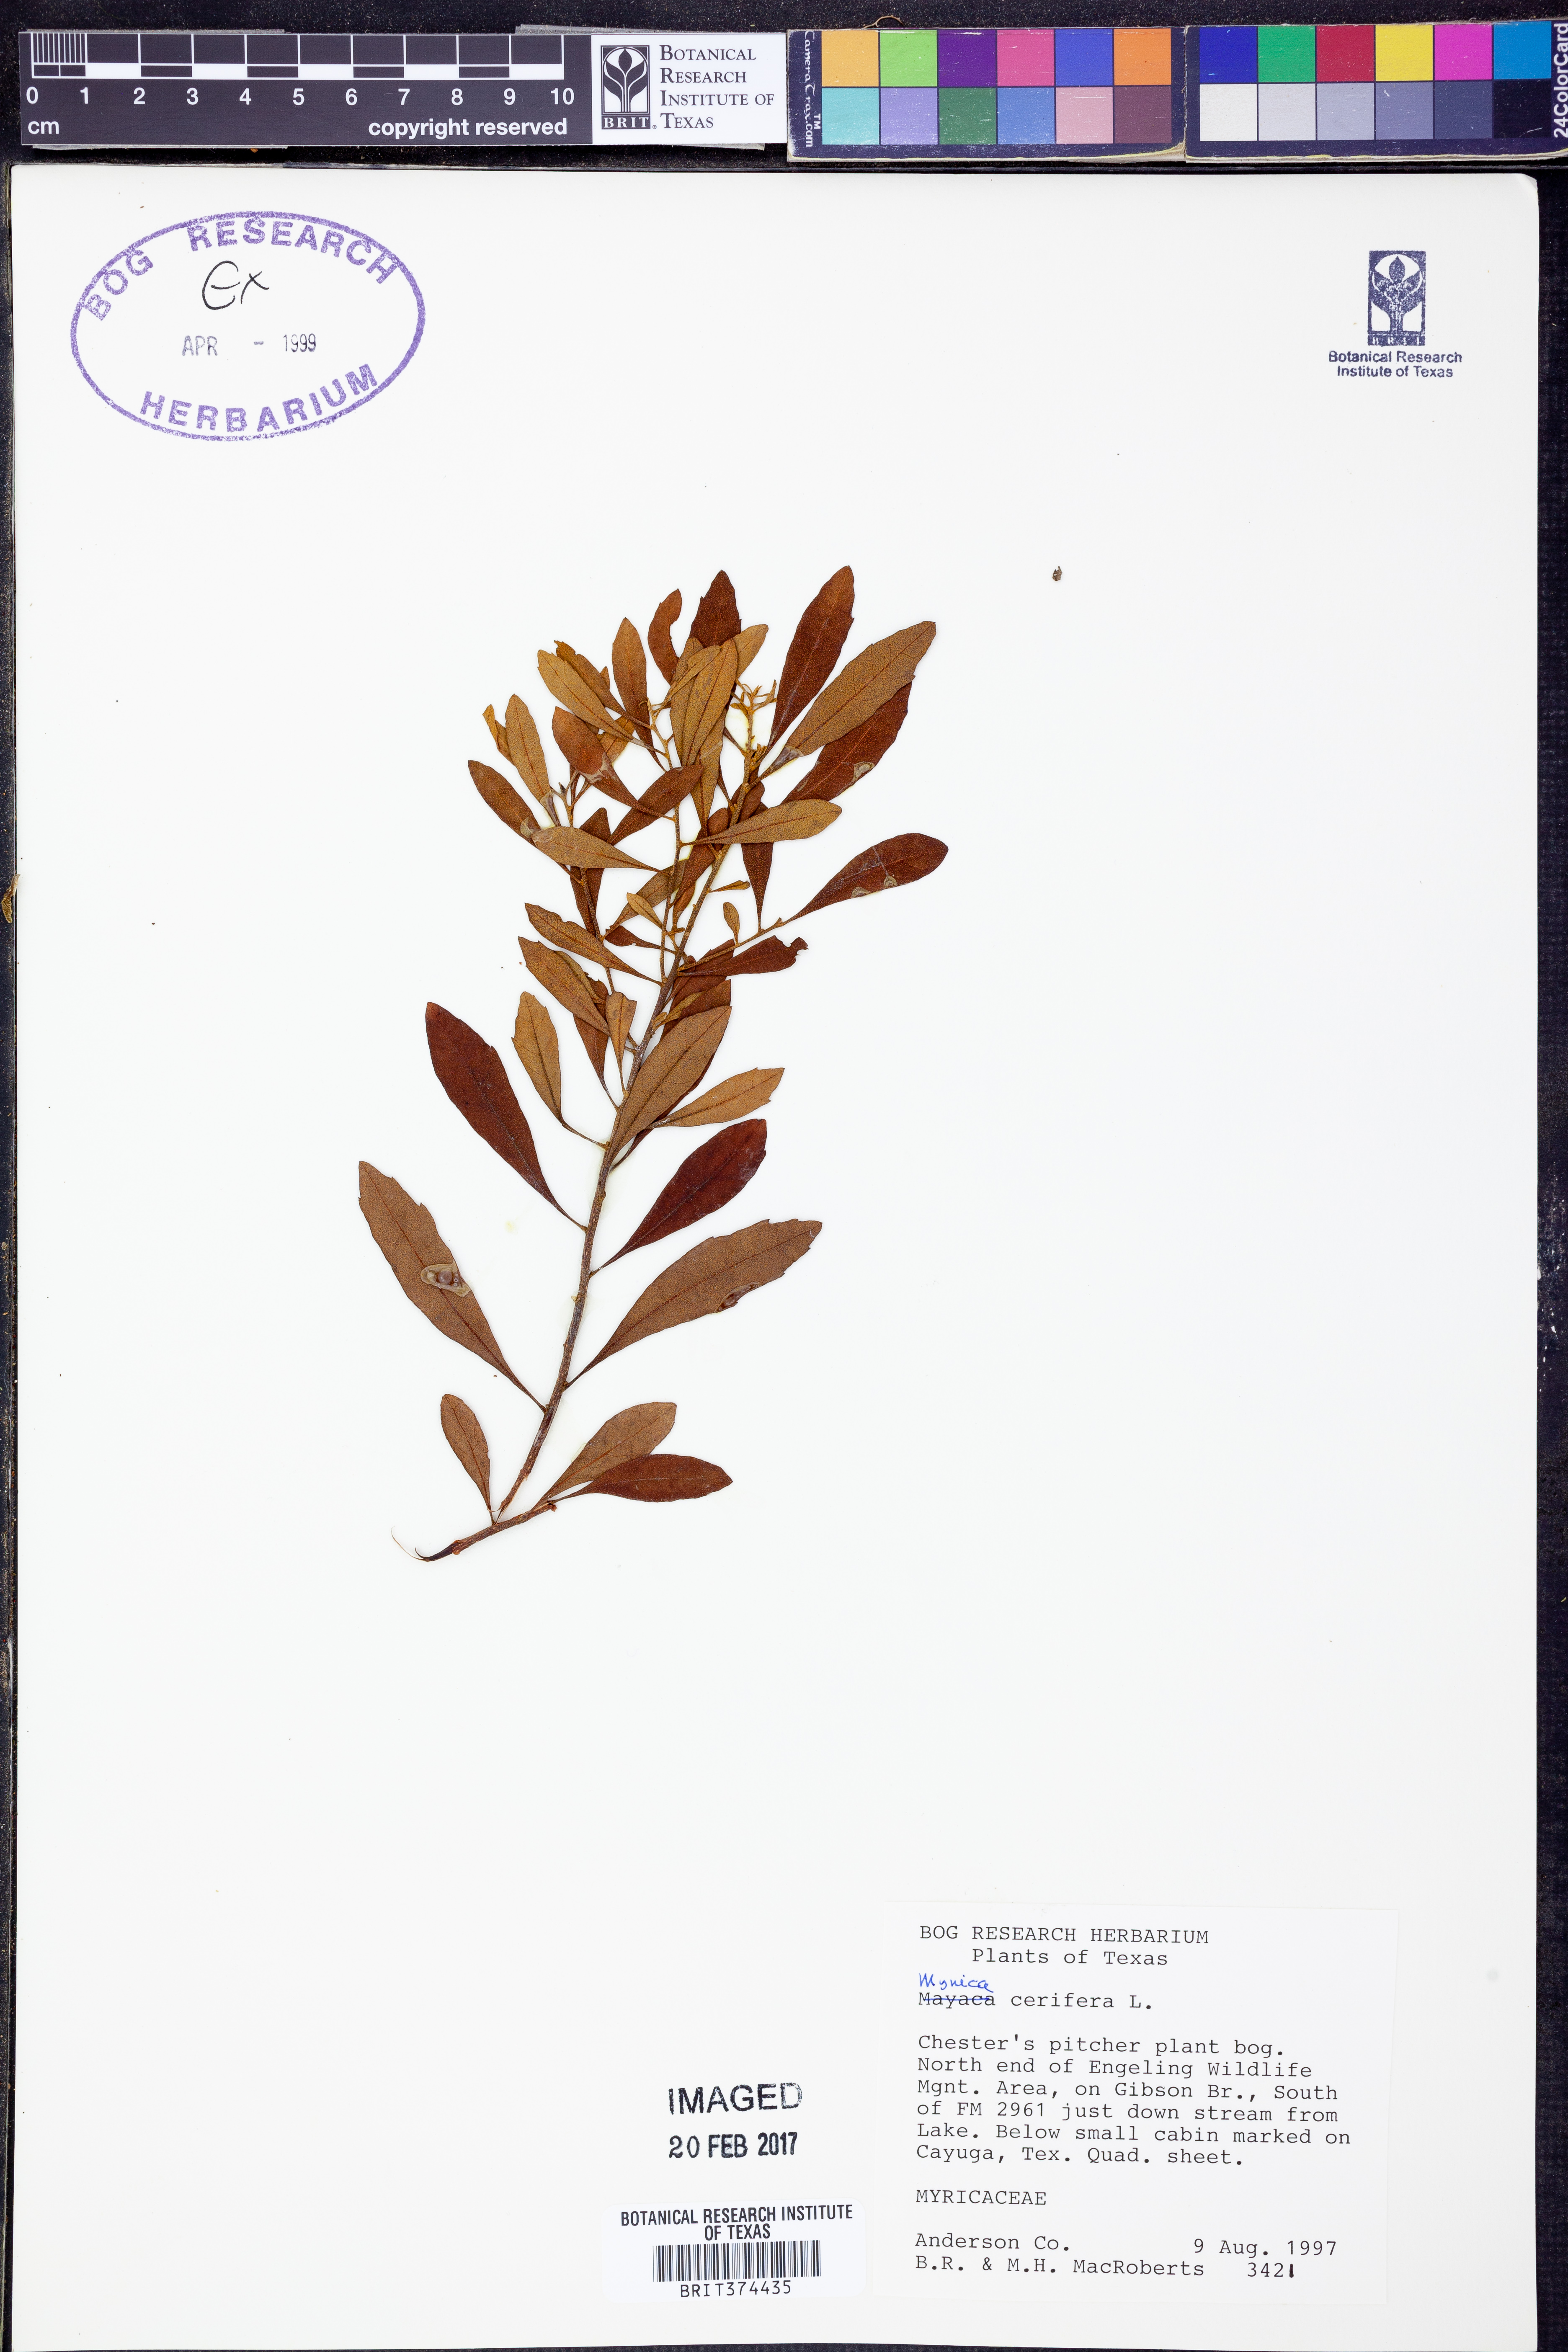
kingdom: Plantae
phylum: Tracheophyta
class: Magnoliopsida
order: Fagales
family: Myricaceae
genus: Morella
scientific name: Morella cerifera
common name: Wax myrtle
